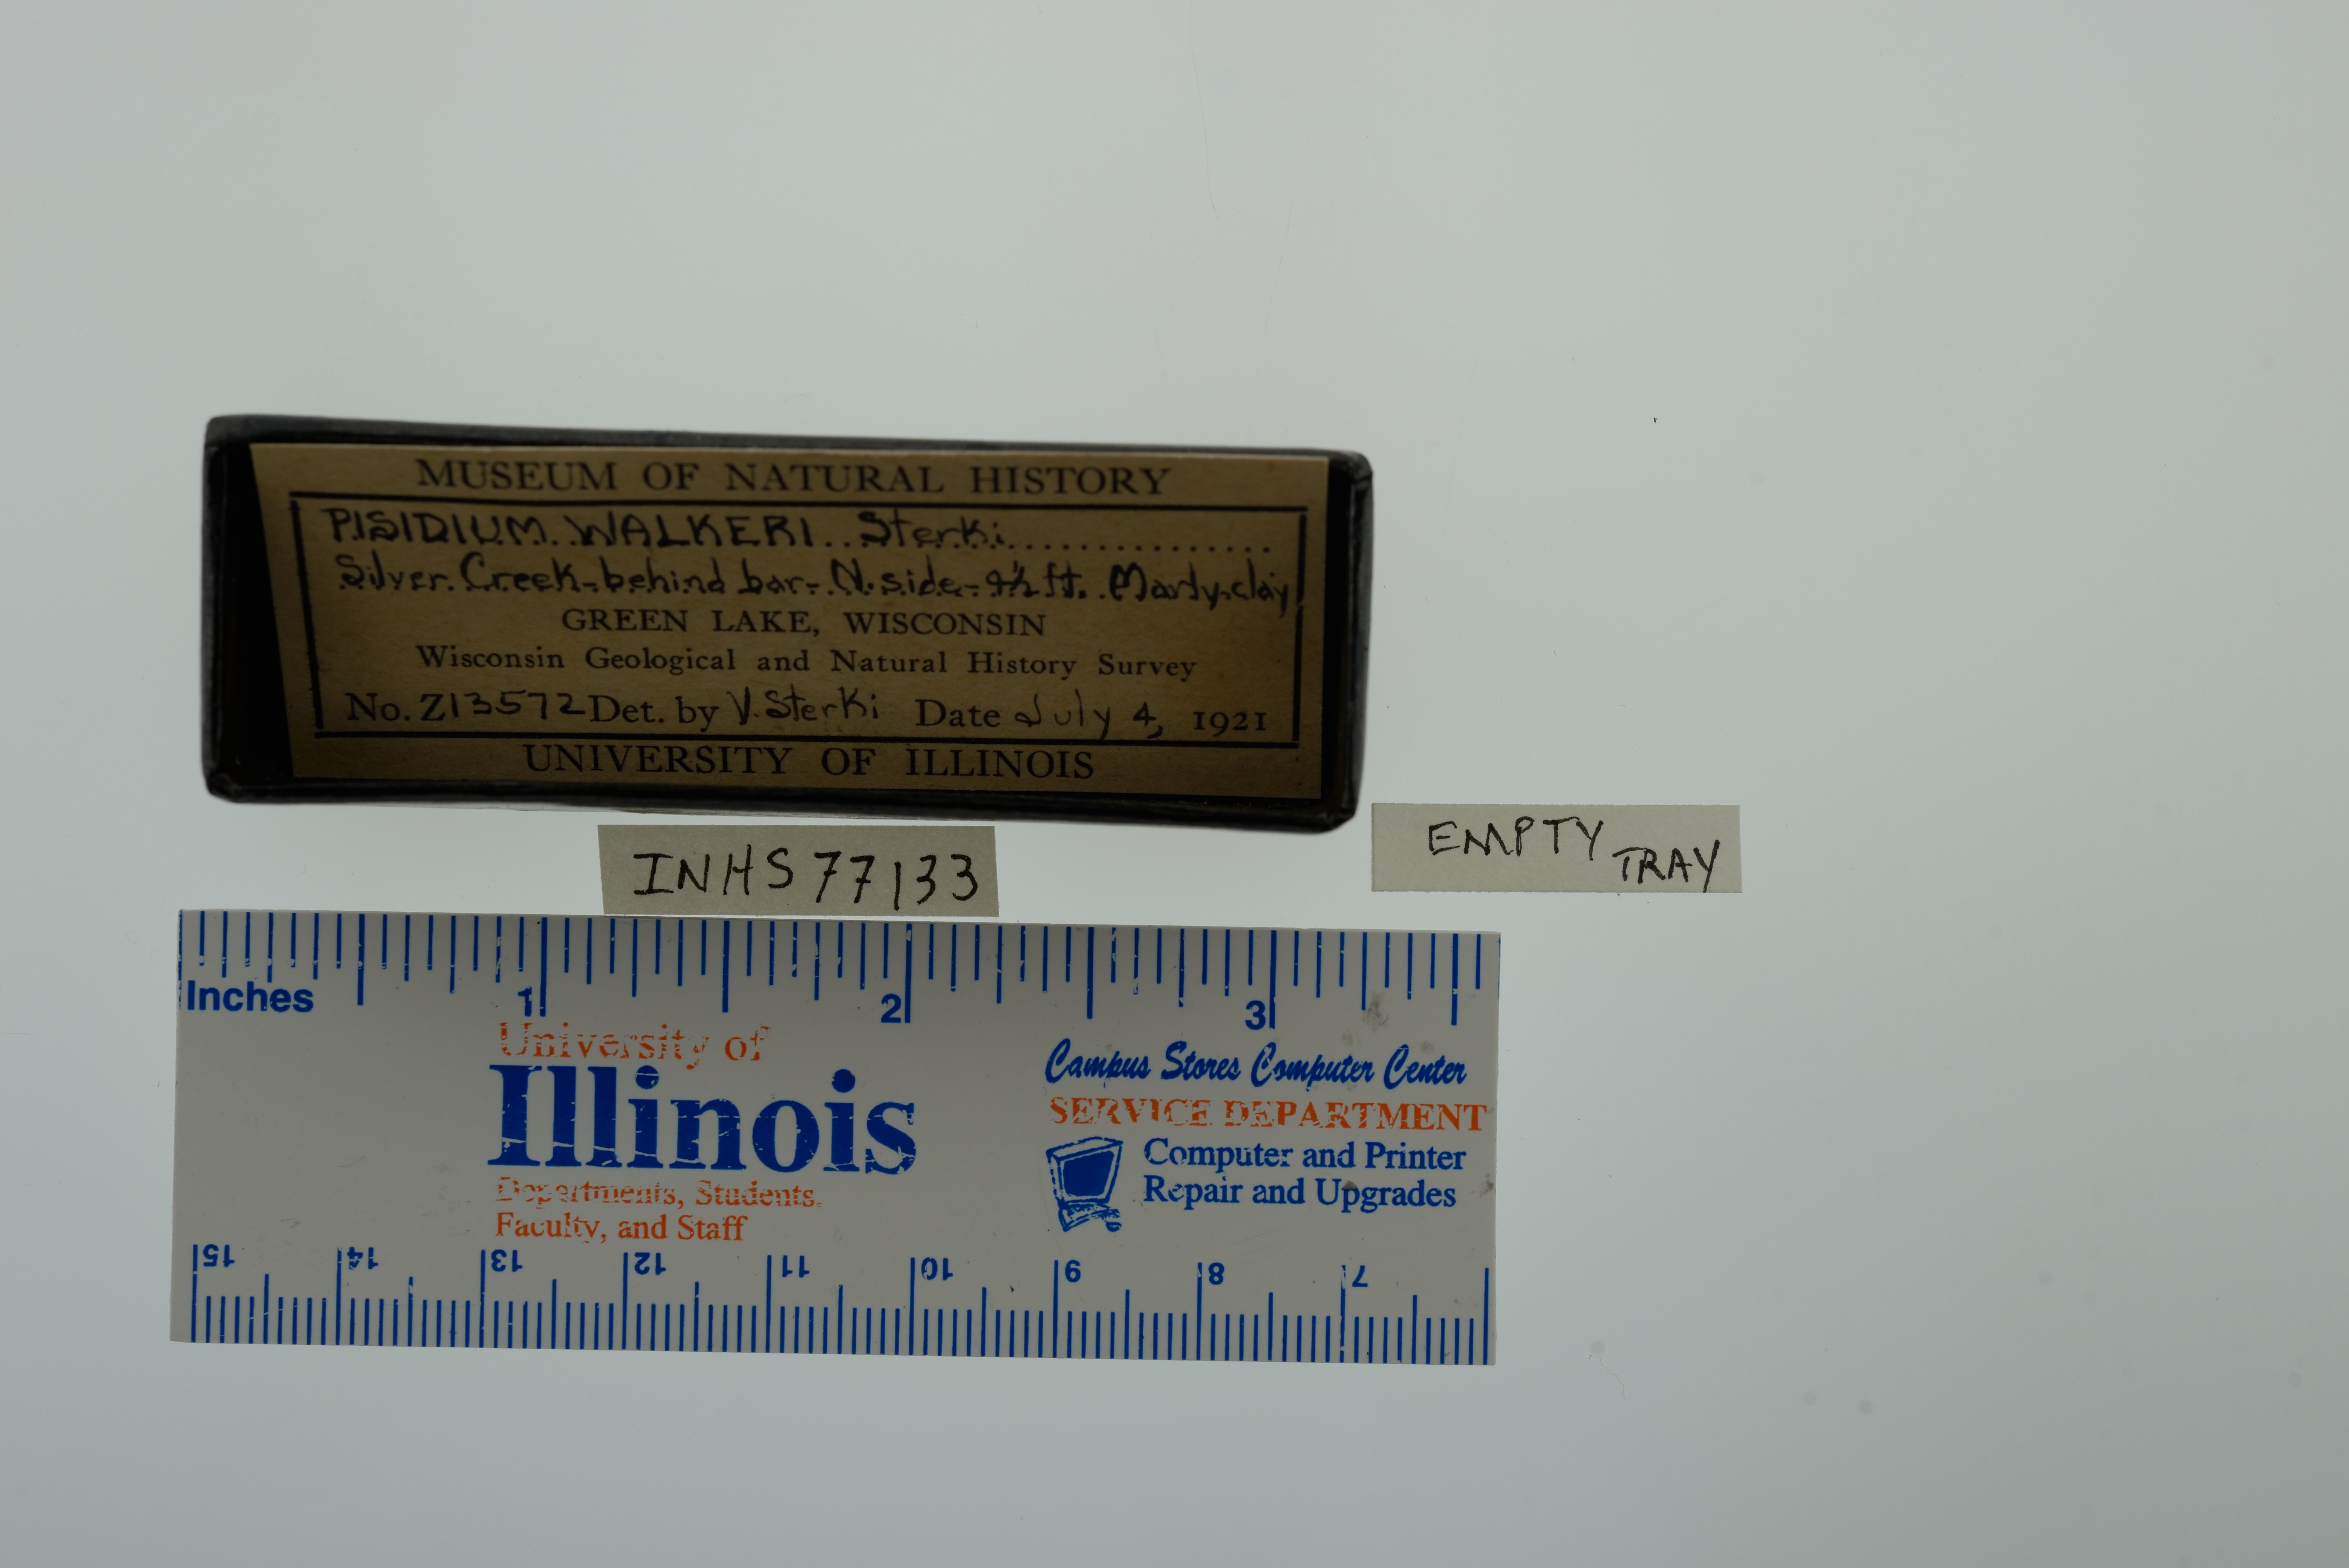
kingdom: Animalia
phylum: Mollusca
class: Bivalvia
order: Sphaeriida
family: Sphaeriidae
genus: Euglesa
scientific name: Euglesa walkeri
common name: Walker peaclam
